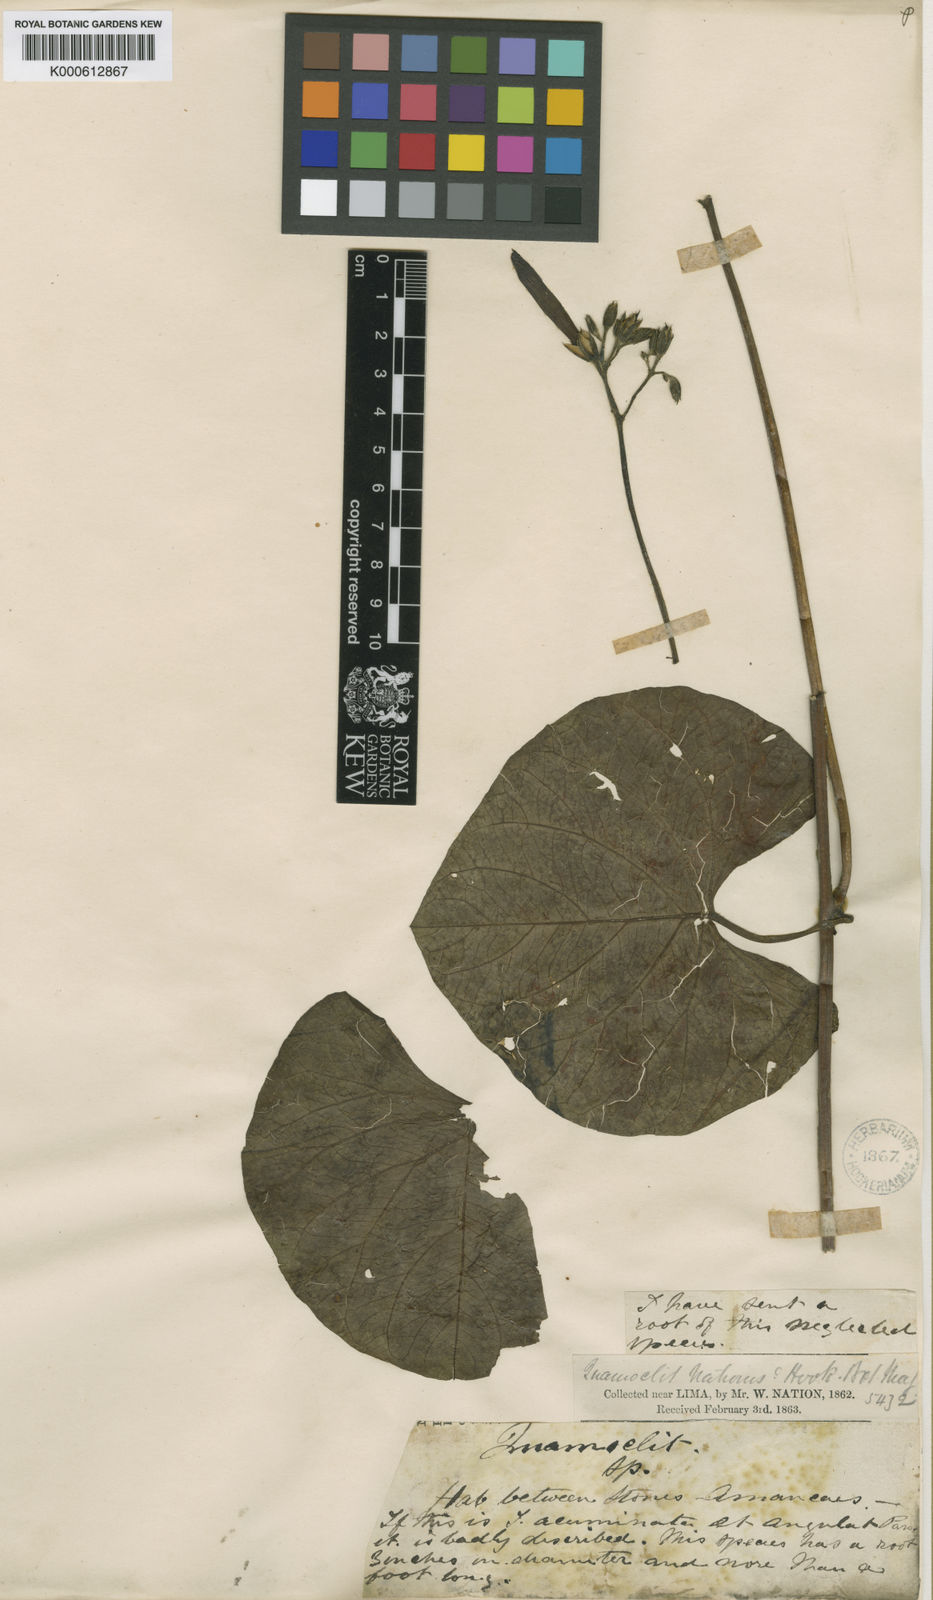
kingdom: Plantae
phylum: Tracheophyta
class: Magnoliopsida
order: Solanales
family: Convolvulaceae
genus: Ipomoea
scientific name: Ipomoea nationis
